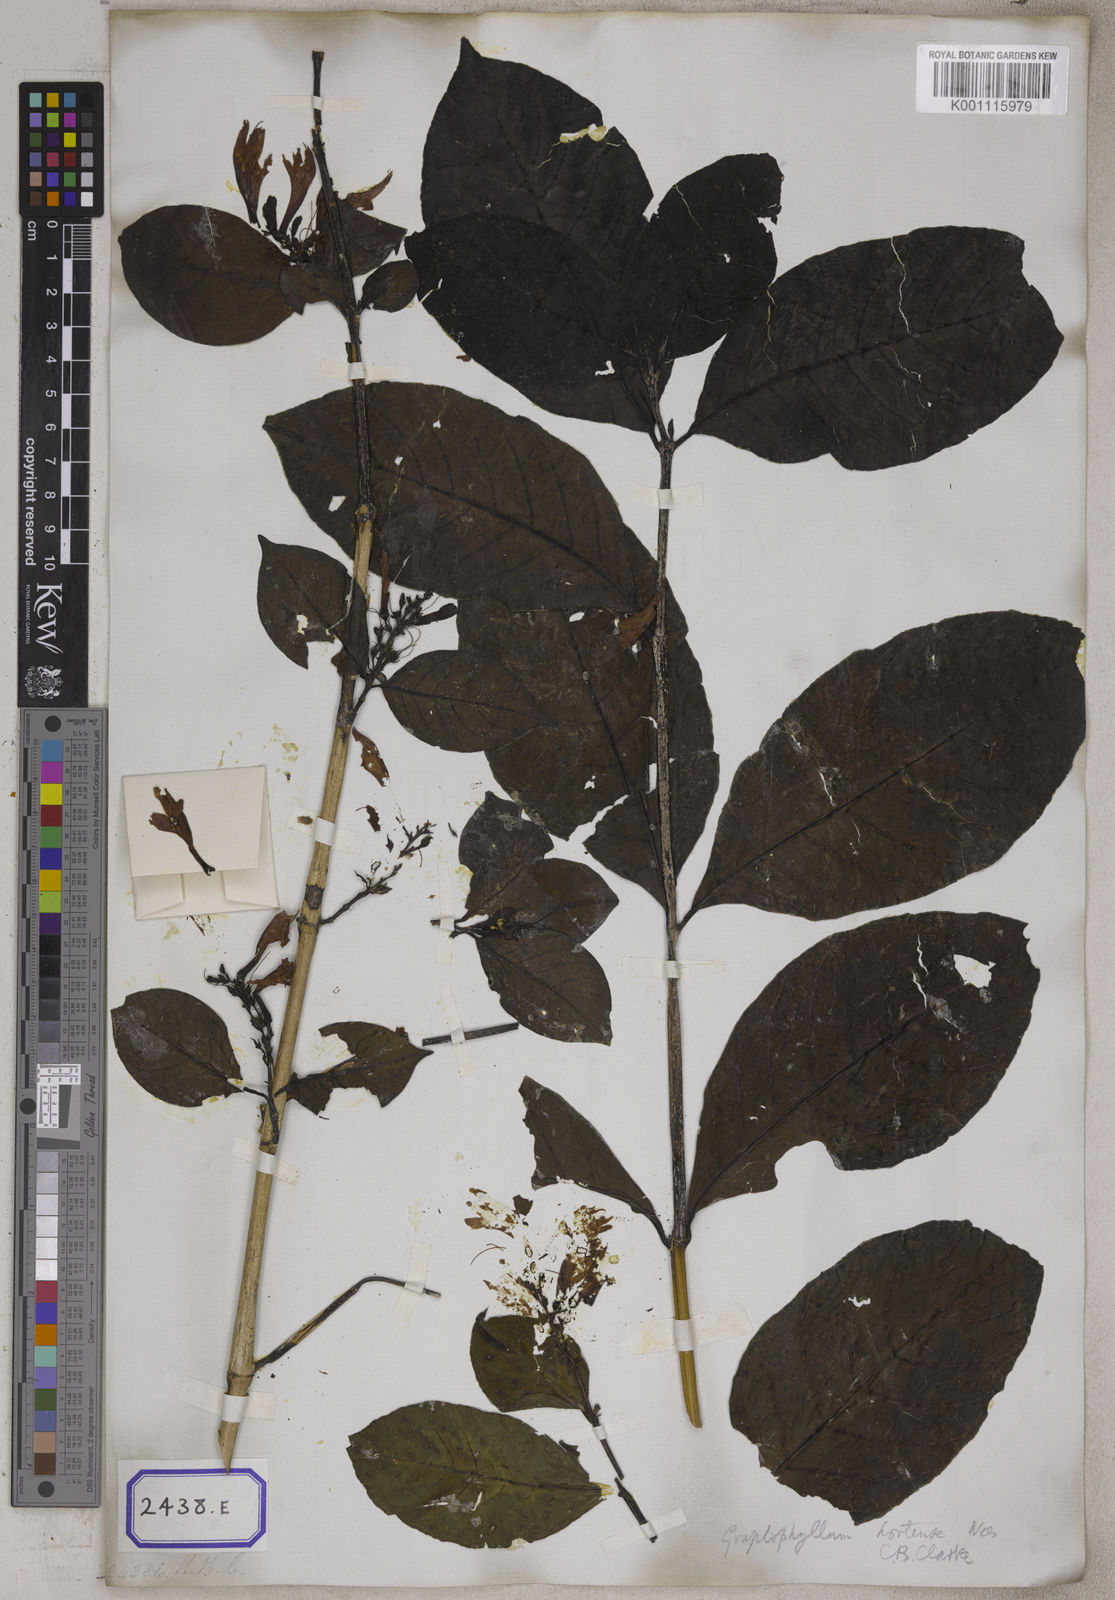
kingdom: Plantae
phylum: Tracheophyta
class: Magnoliopsida
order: Lamiales
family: Acanthaceae
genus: Graptophyllum
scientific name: Graptophyllum pictum
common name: Caricature-plant
